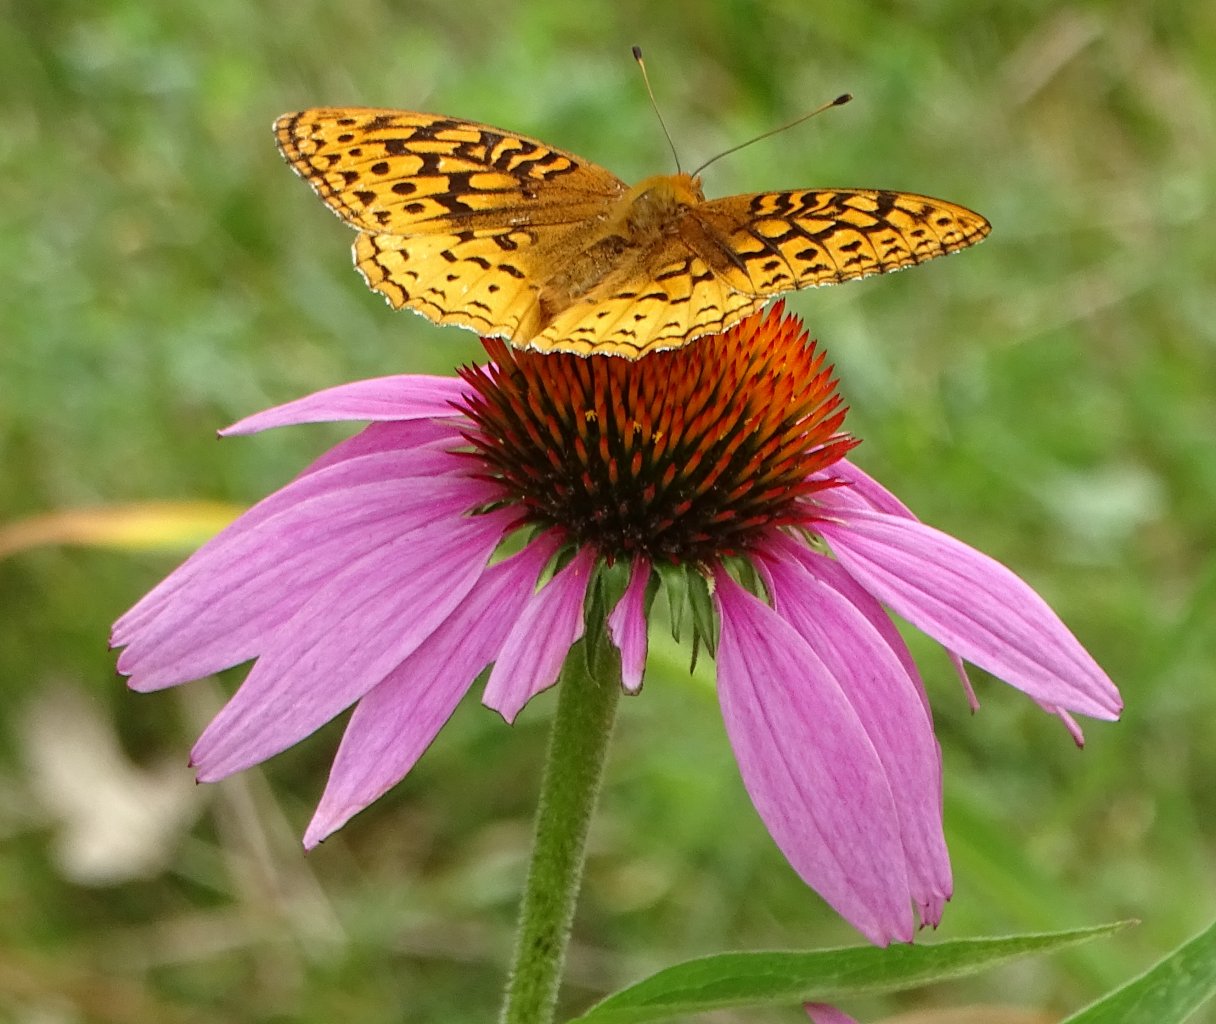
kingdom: Animalia
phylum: Arthropoda
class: Insecta
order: Lepidoptera
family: Nymphalidae
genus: Speyeria
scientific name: Speyeria cybele
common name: Great Spangled Fritillary
